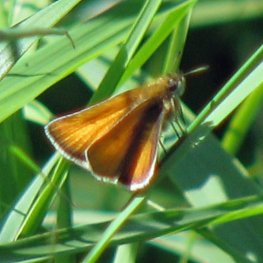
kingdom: Animalia
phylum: Arthropoda
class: Insecta
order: Lepidoptera
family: Hesperiidae
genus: Thymelicus
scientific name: Thymelicus lineola
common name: European Skipper
